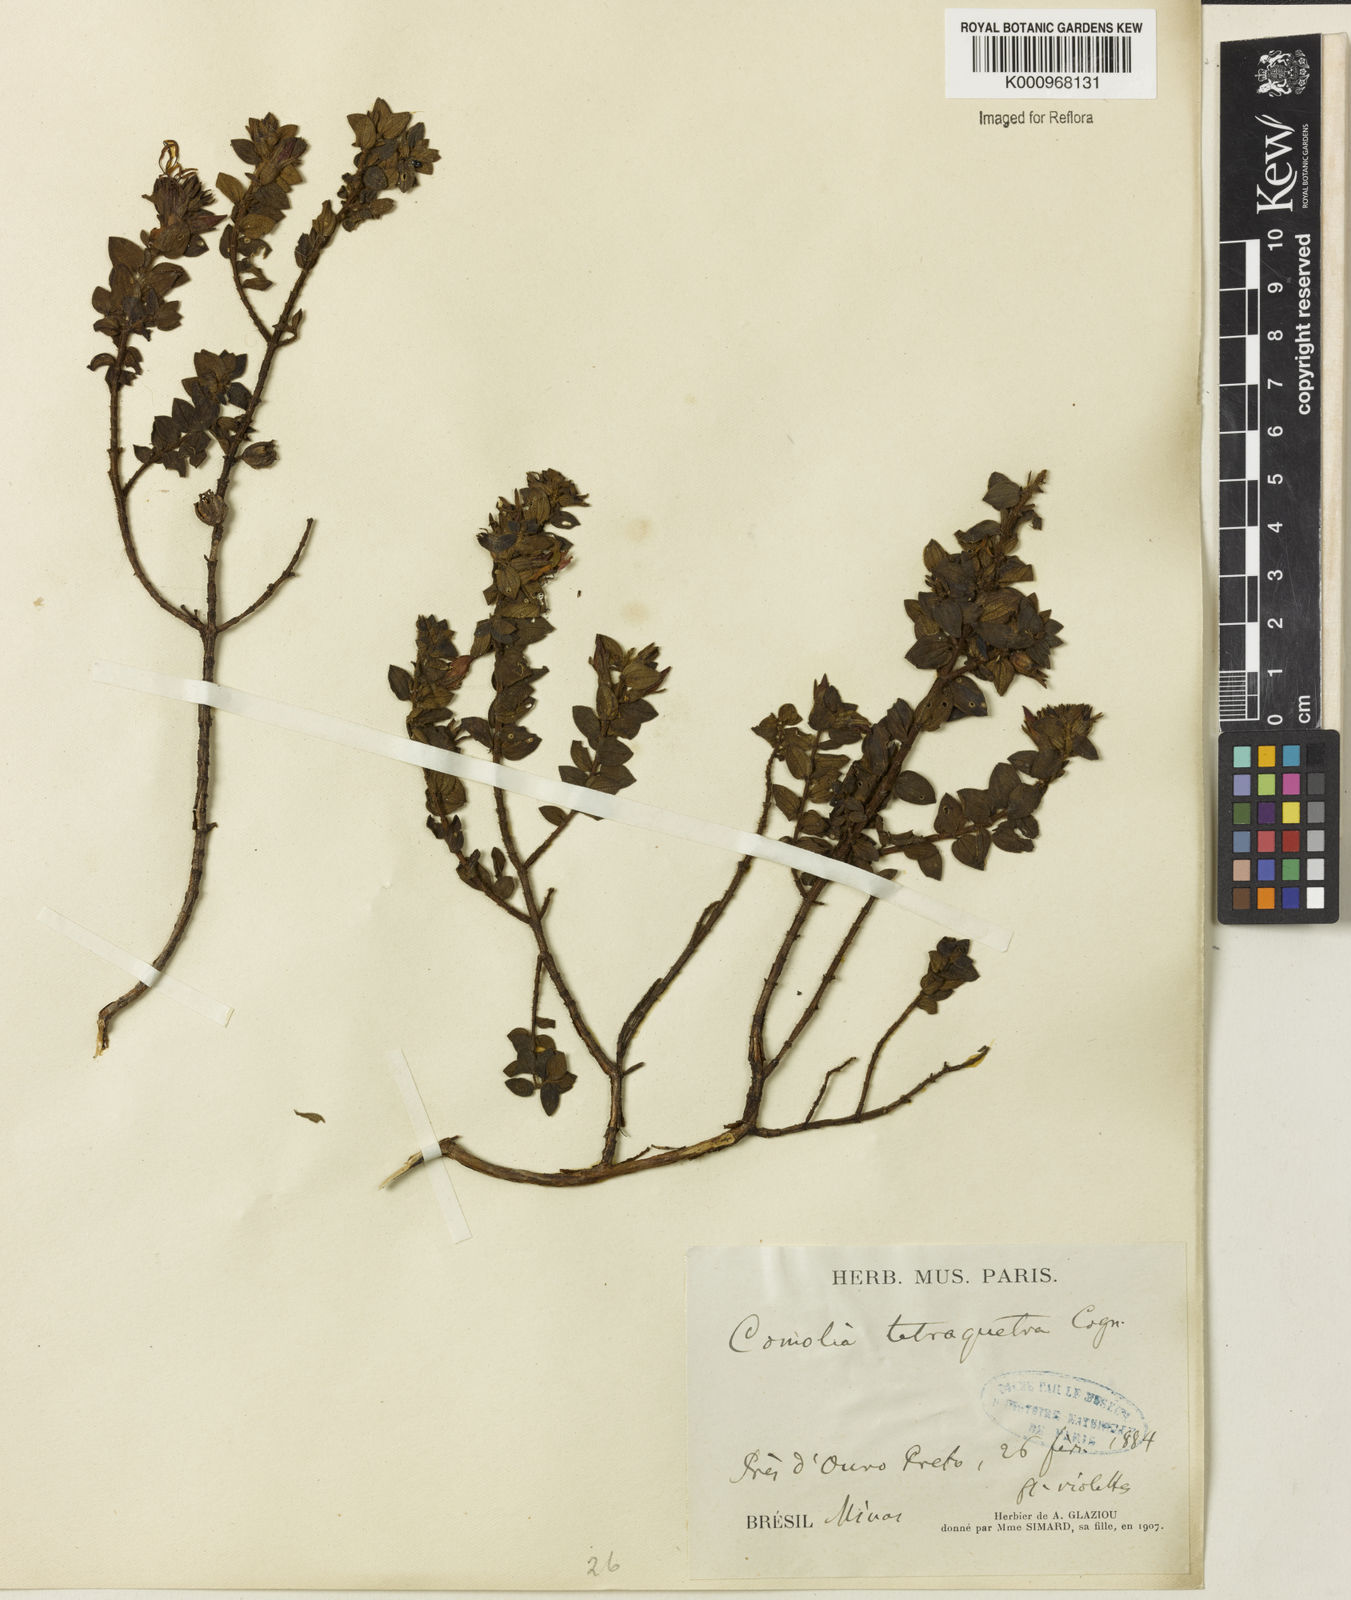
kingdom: Plantae
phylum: Tracheophyta
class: Magnoliopsida
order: Myrtales
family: Melastomataceae
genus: Fritzschia
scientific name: Fritzschia sessilis
